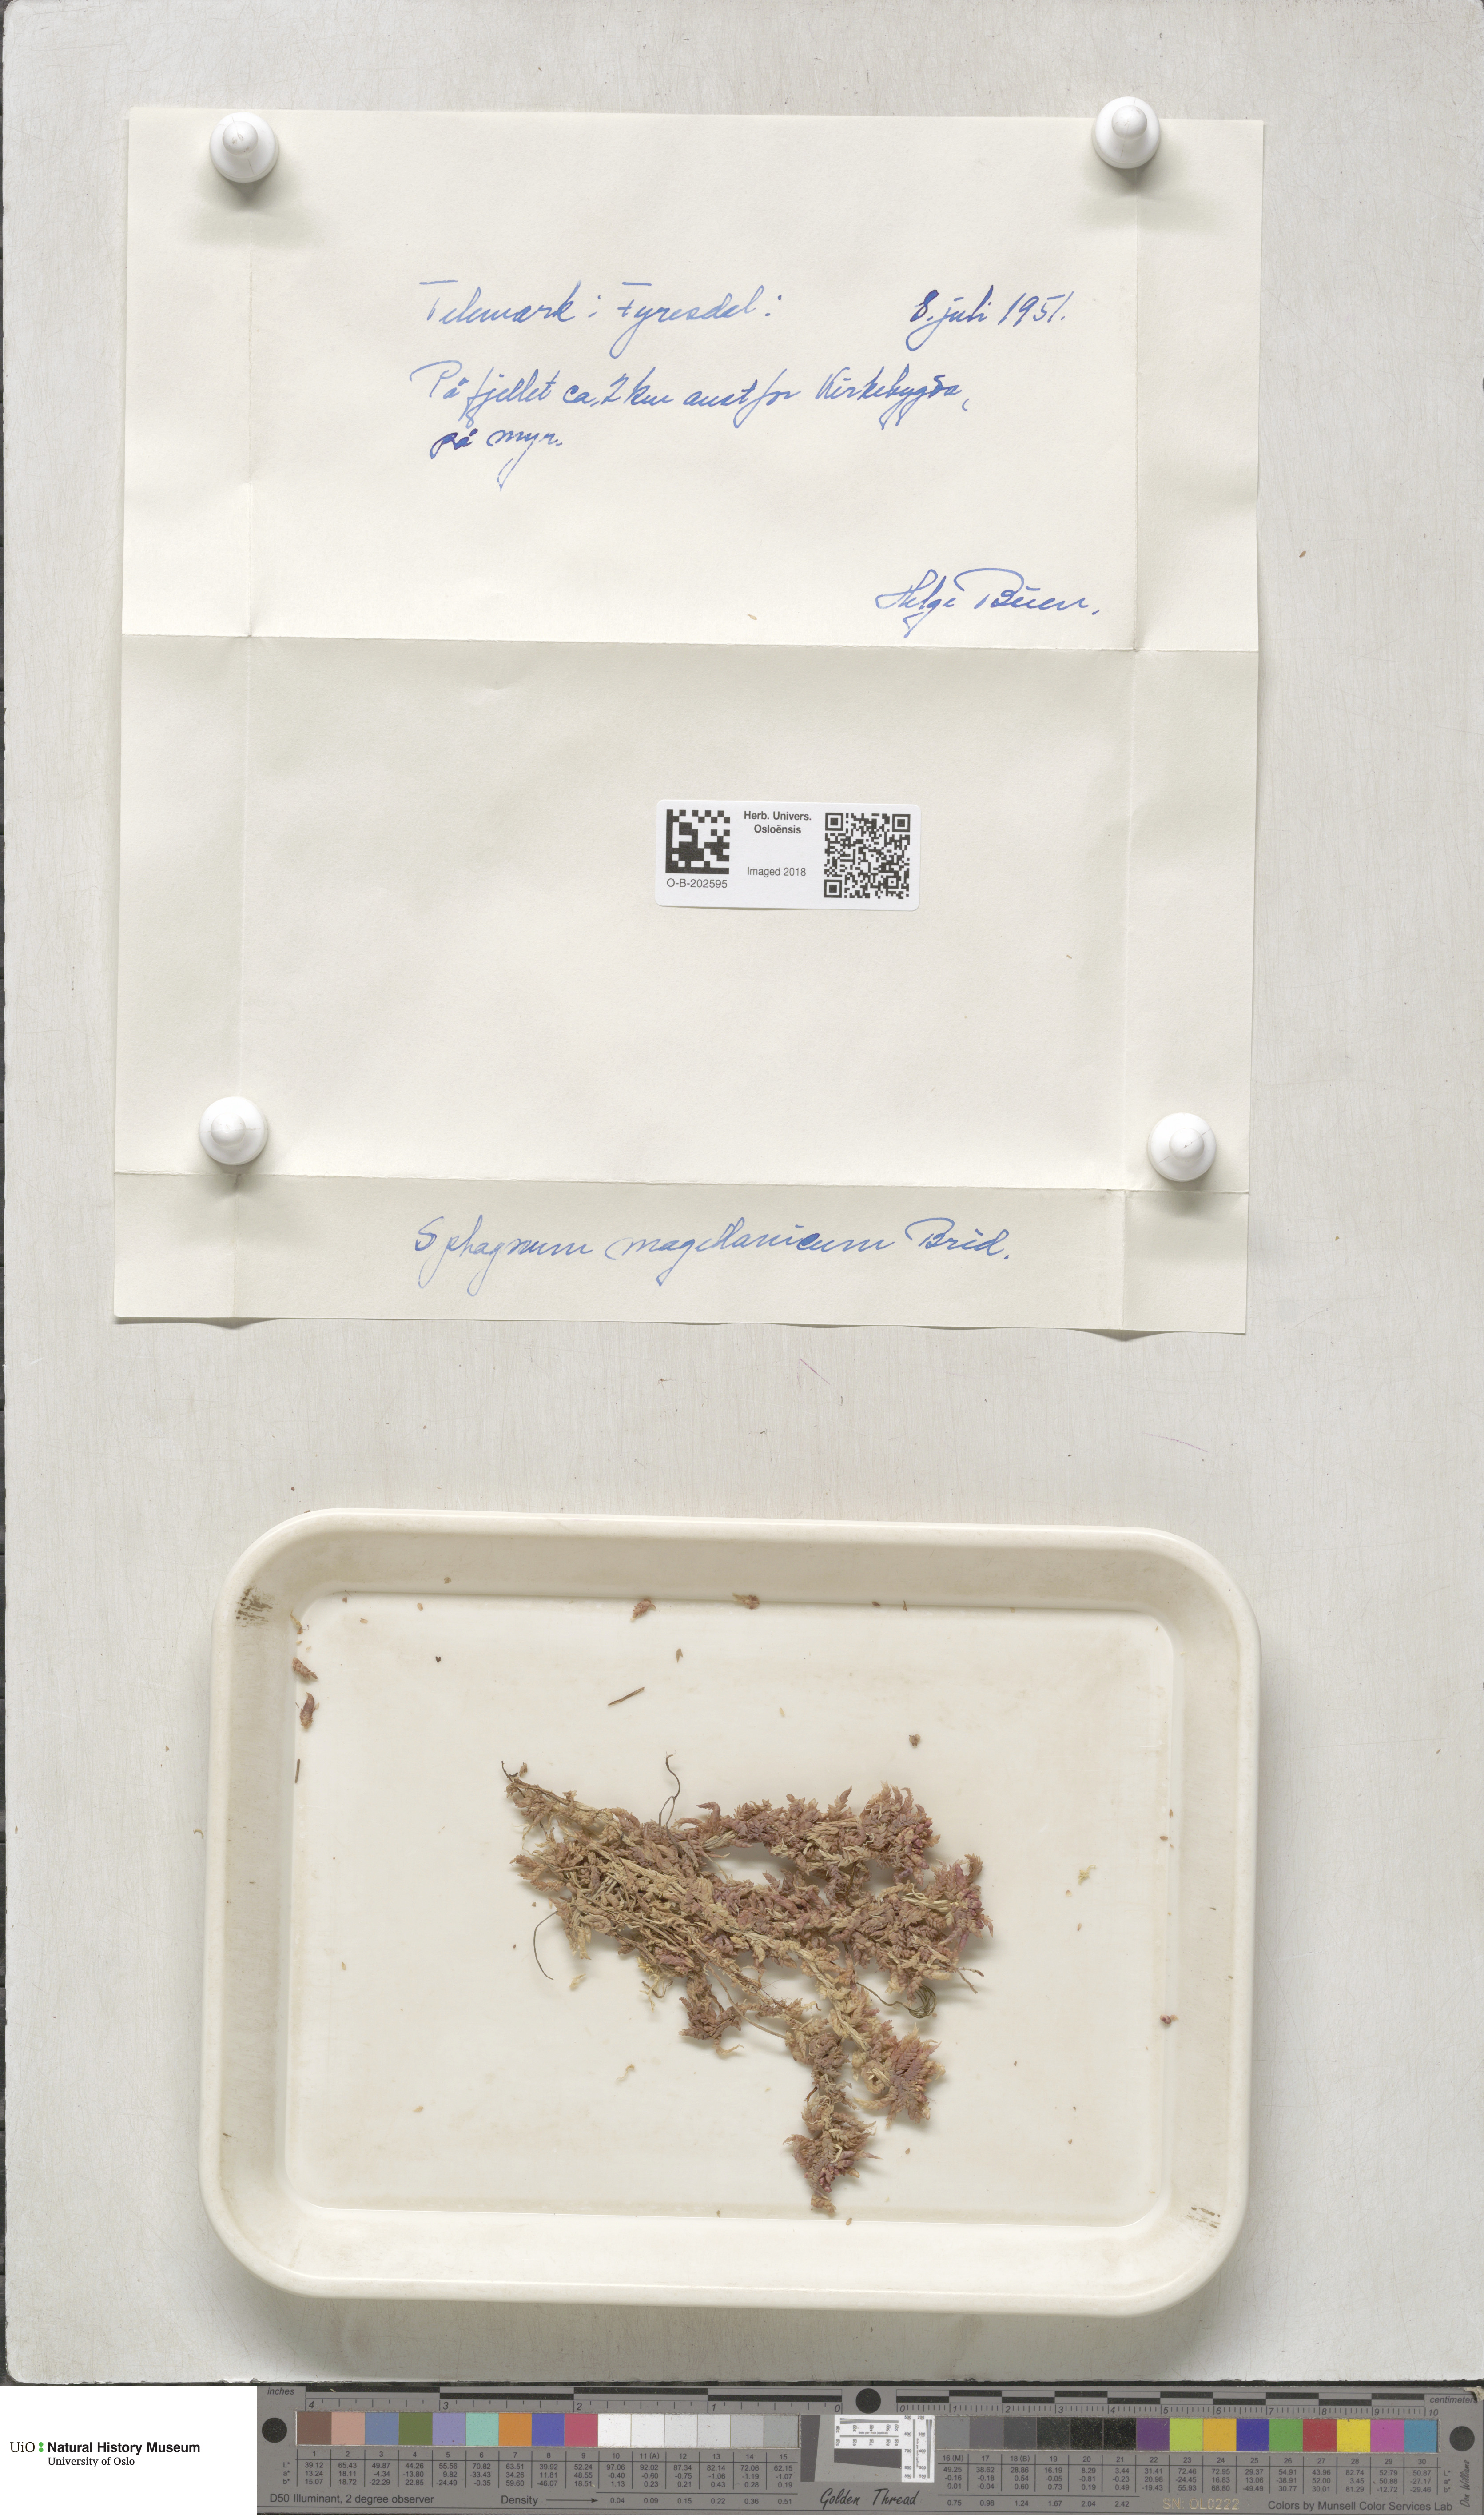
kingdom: Plantae
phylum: Bryophyta
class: Sphagnopsida
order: Sphagnales
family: Sphagnaceae
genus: Sphagnum
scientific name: Sphagnum magellanicum
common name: Magellan's peat moss
